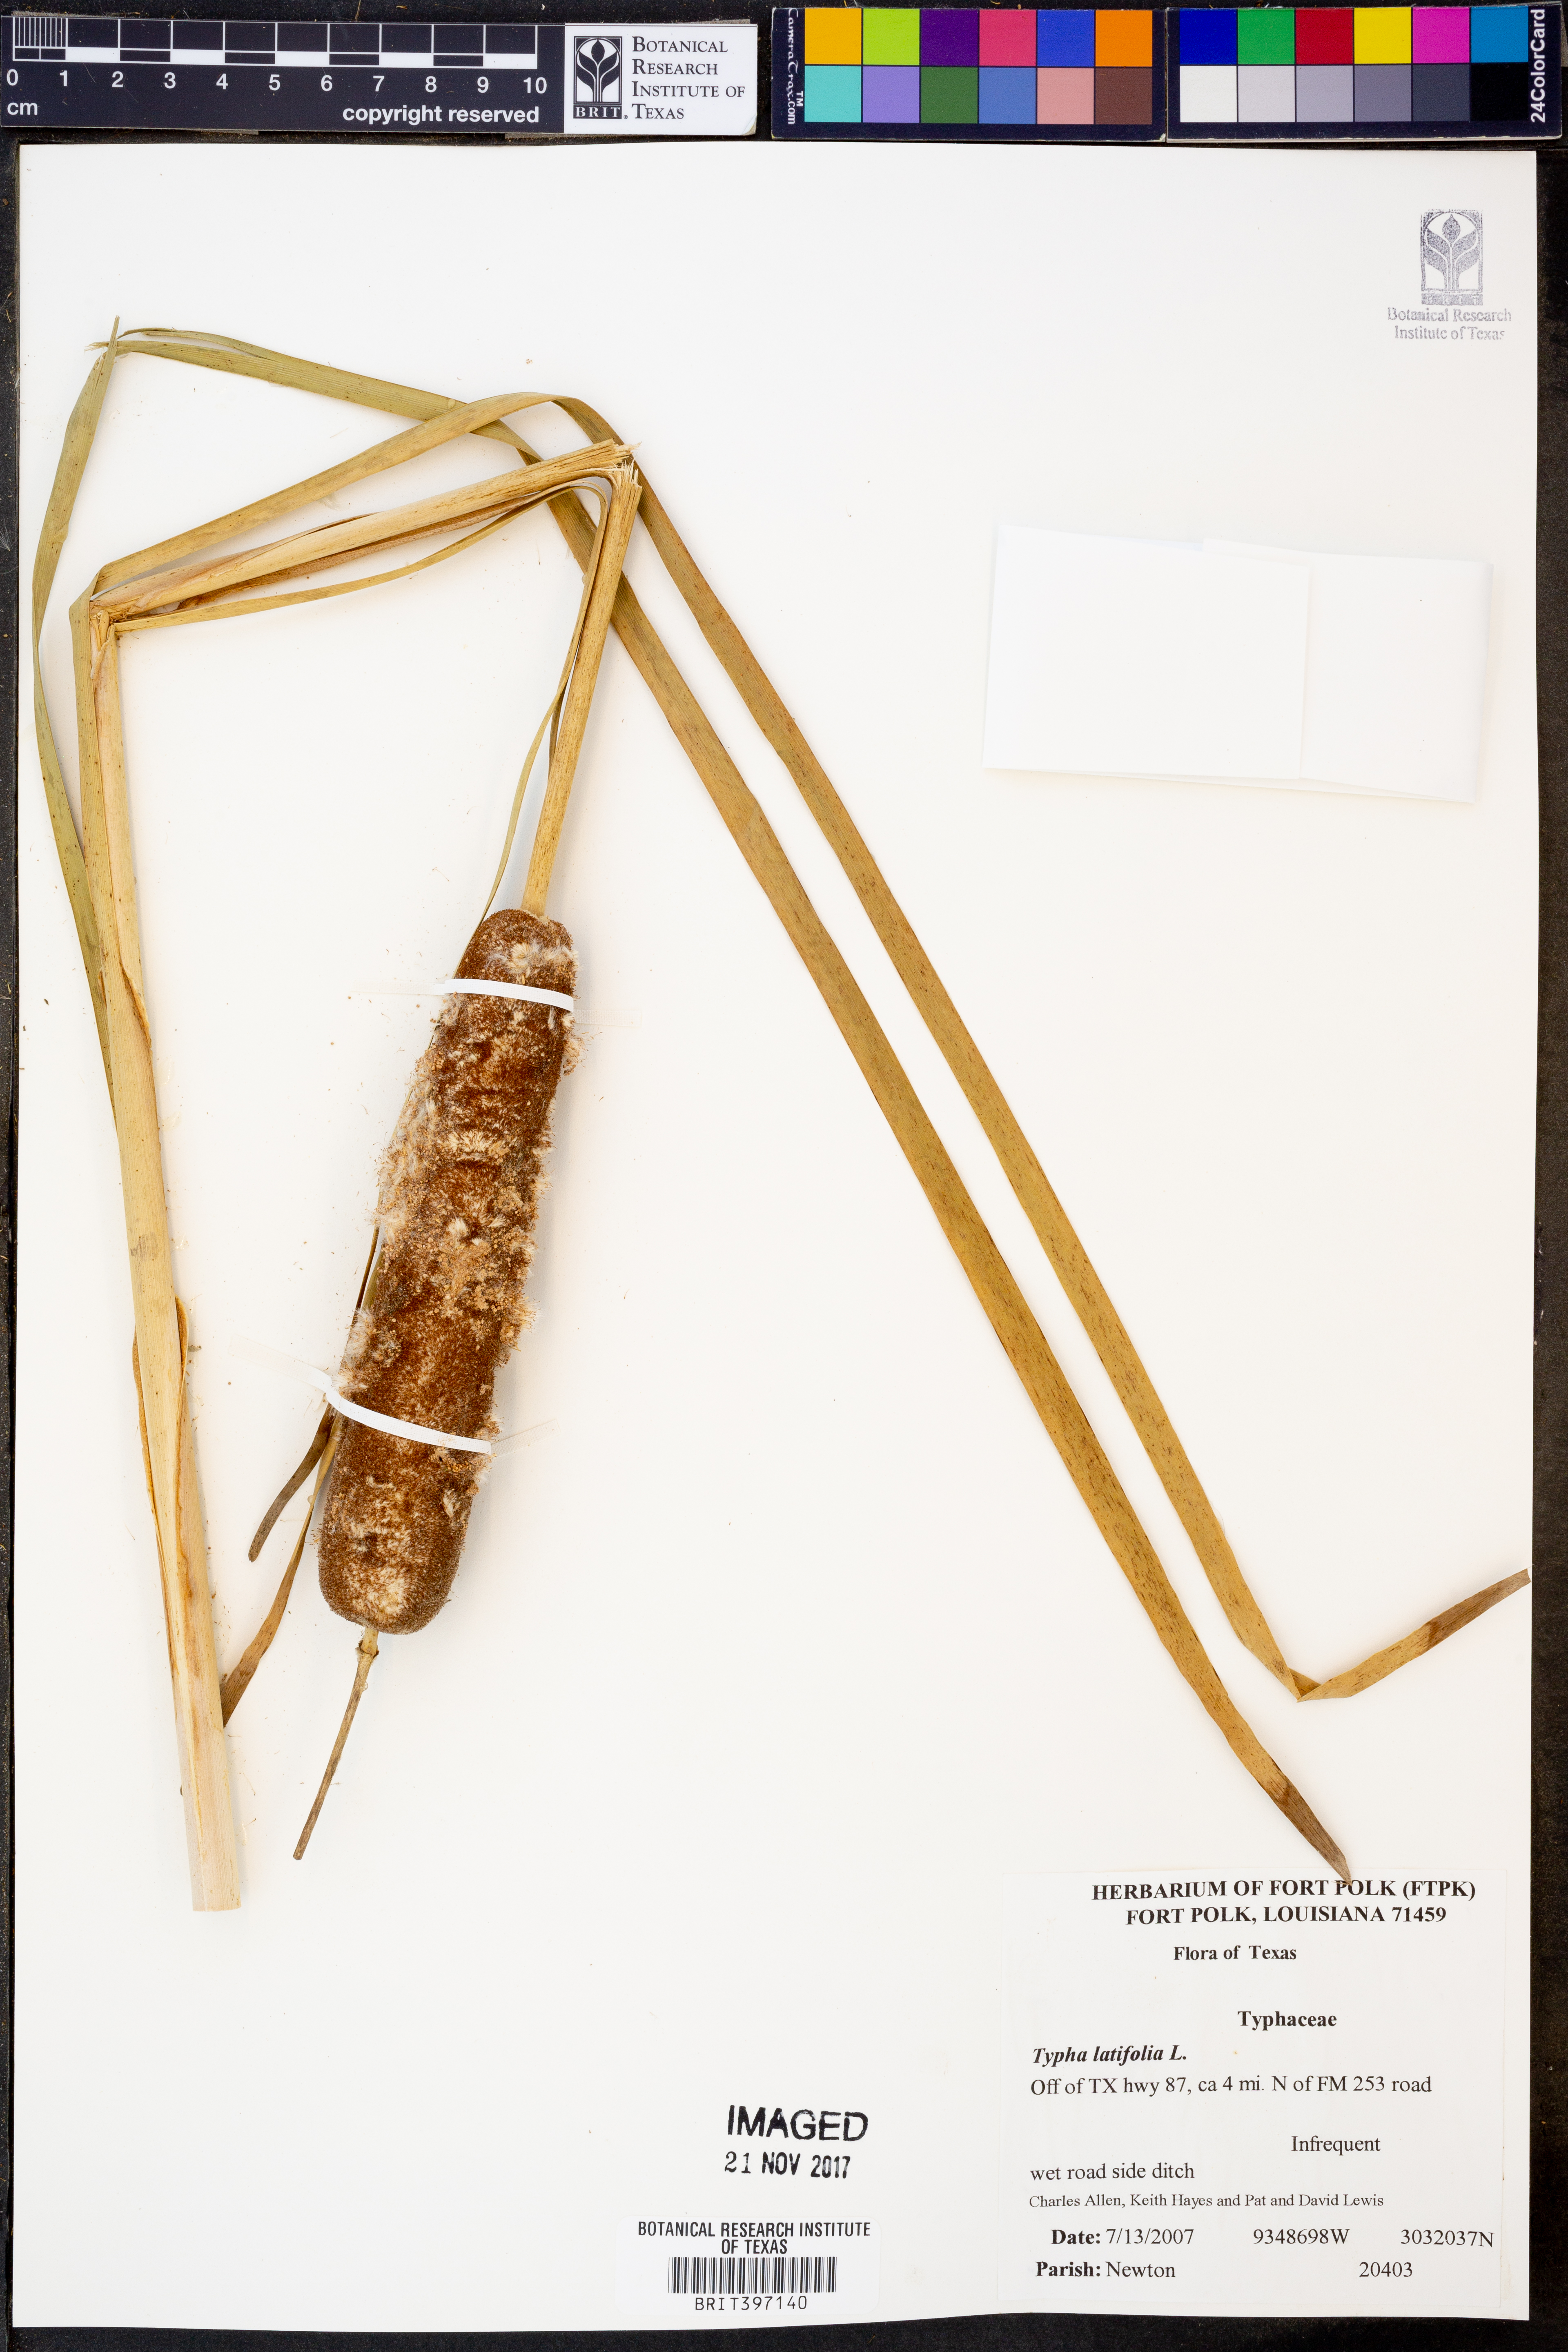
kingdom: Plantae
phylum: Tracheophyta
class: Liliopsida
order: Poales
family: Typhaceae
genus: Typha
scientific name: Typha latifolia
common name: Broadleaf cattail
